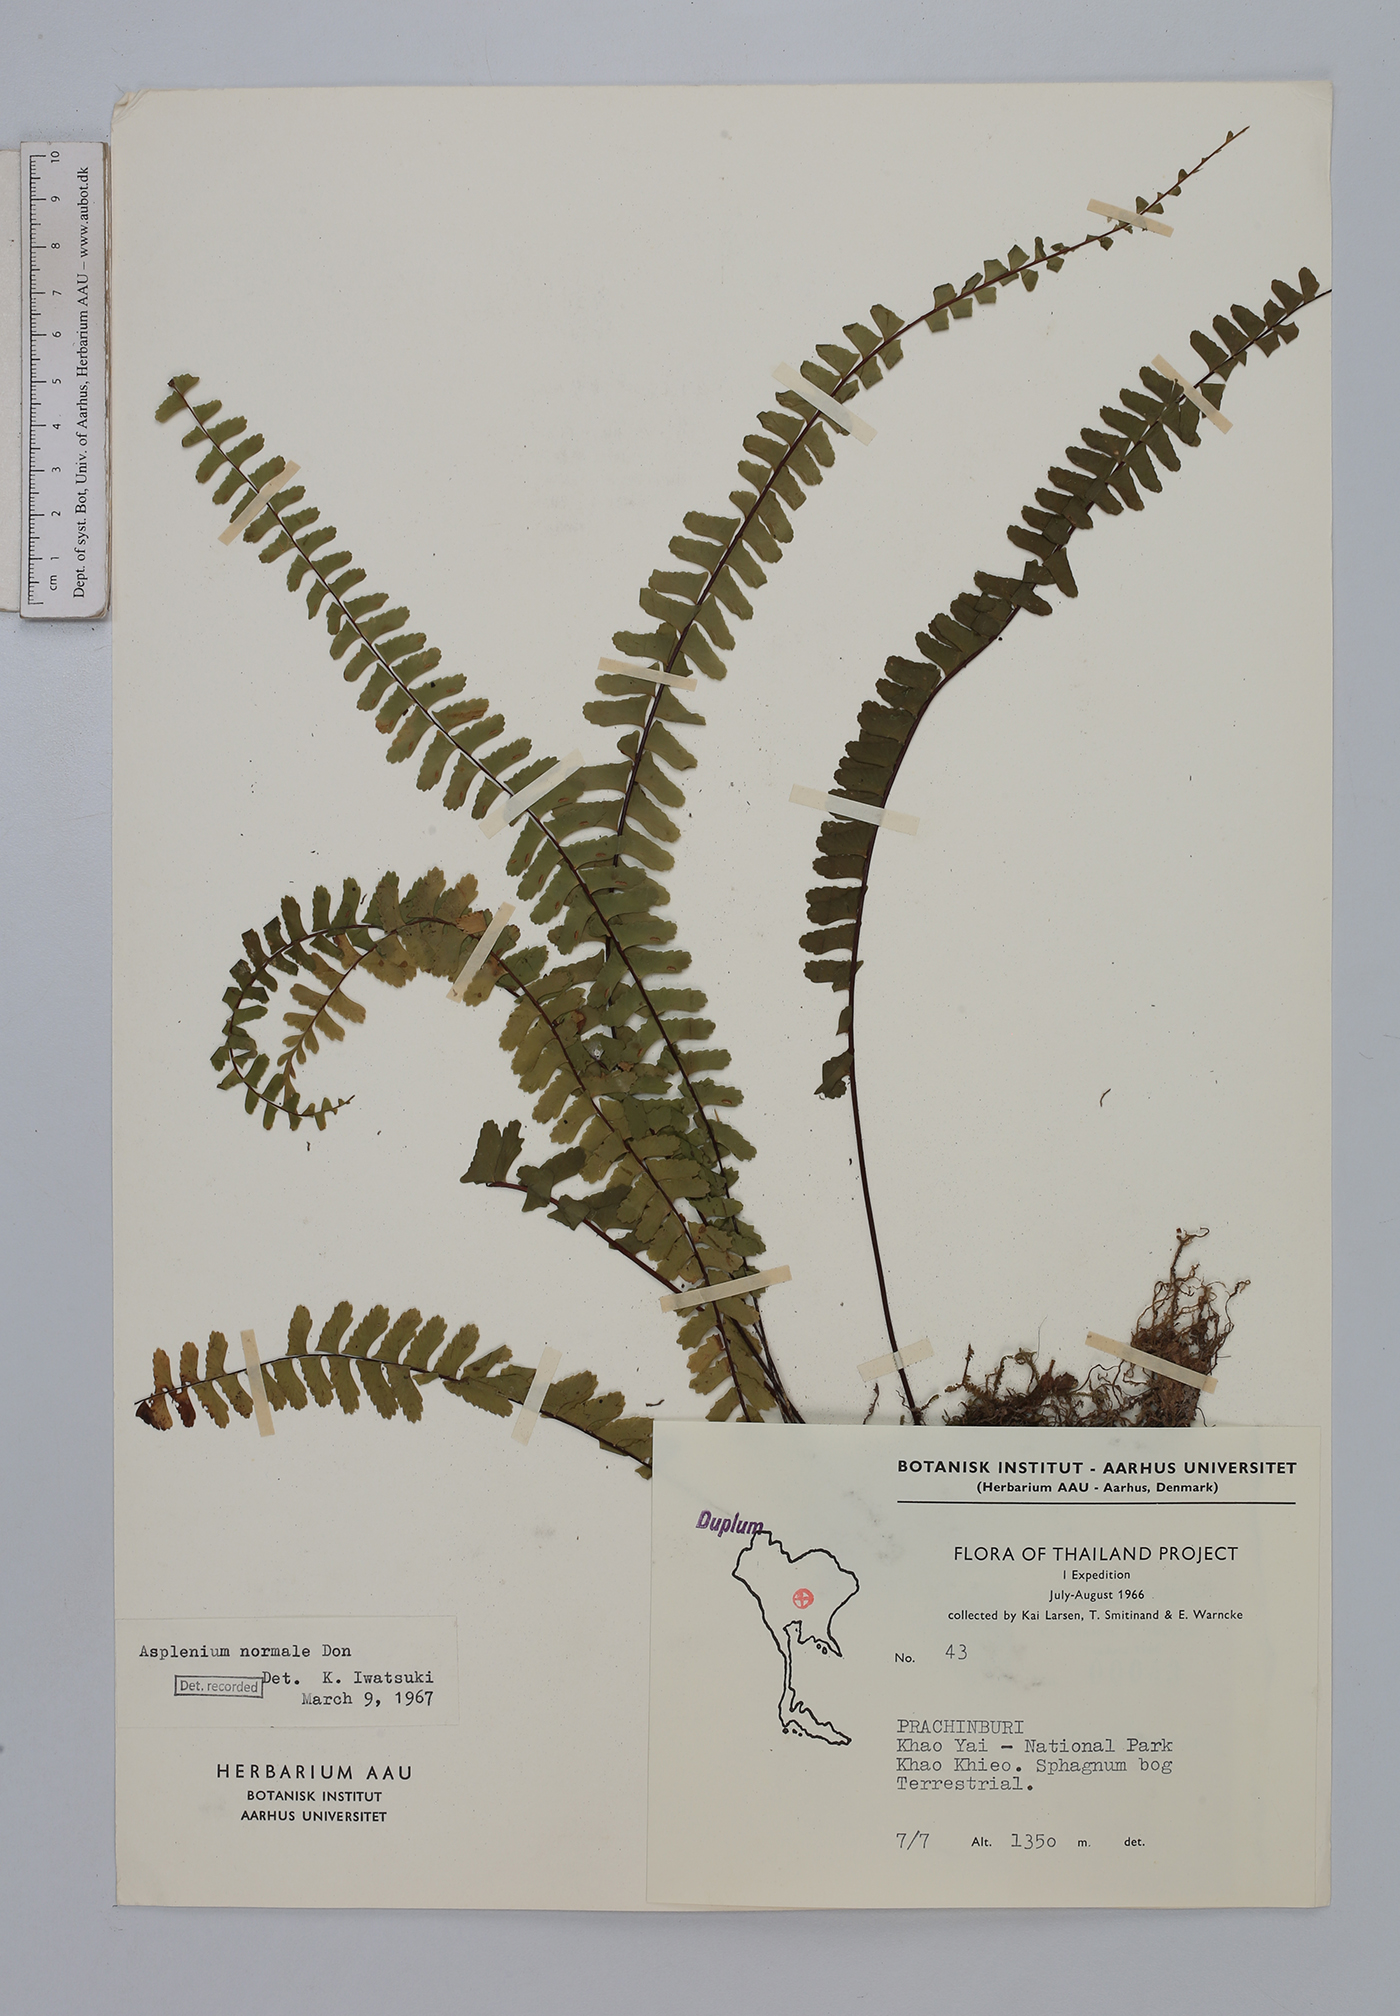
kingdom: Plantae
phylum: Tracheophyta
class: Polypodiopsida
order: Polypodiales
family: Aspleniaceae
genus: Asplenium
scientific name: Asplenium normale
